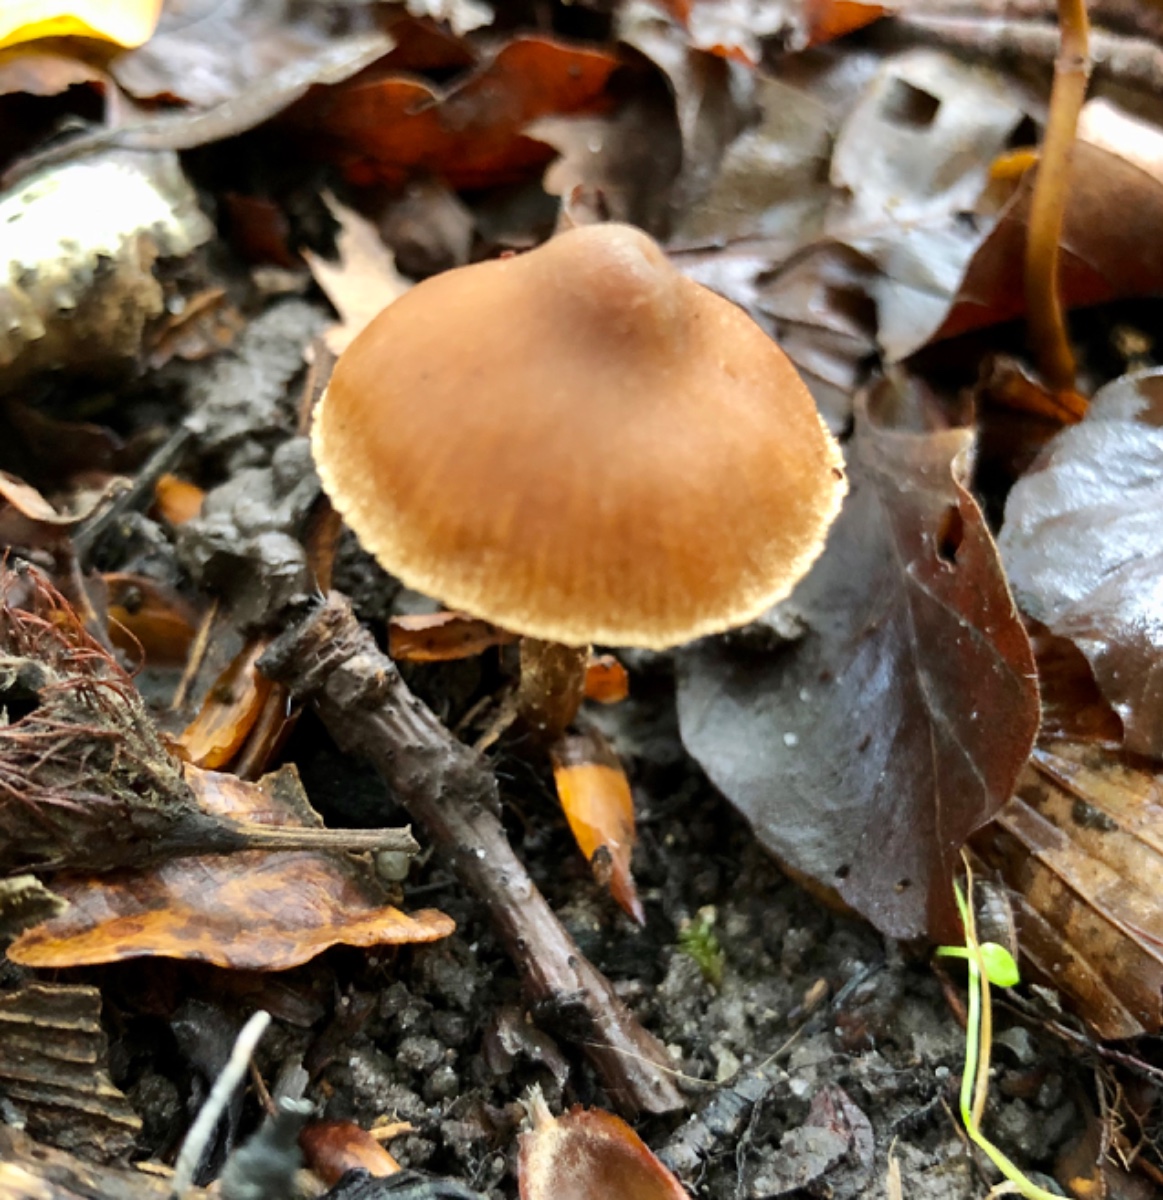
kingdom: Fungi
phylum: Basidiomycota
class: Agaricomycetes
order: Agaricales
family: Cortinariaceae
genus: Cortinarius
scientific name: Cortinarius
